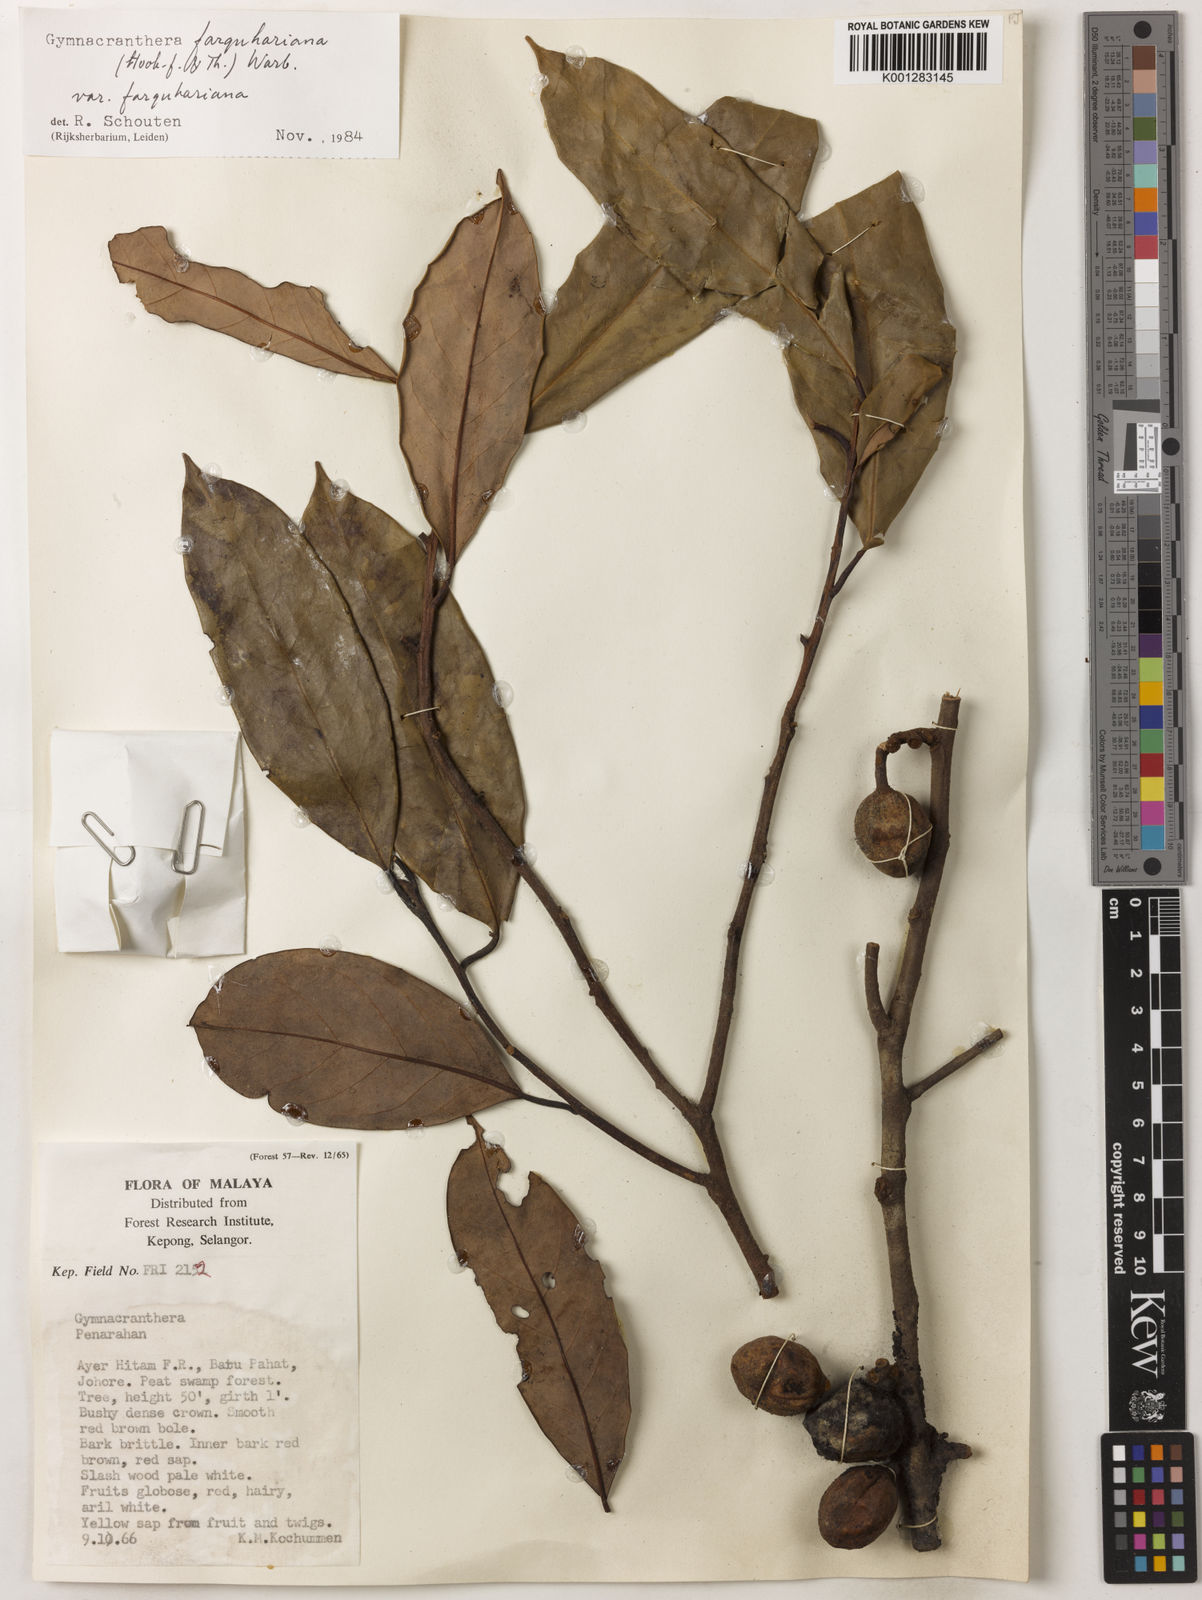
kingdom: Plantae
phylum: Tracheophyta
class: Magnoliopsida
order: Magnoliales
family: Myristicaceae
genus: Gymnacranthera
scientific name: Gymnacranthera farquhariana
